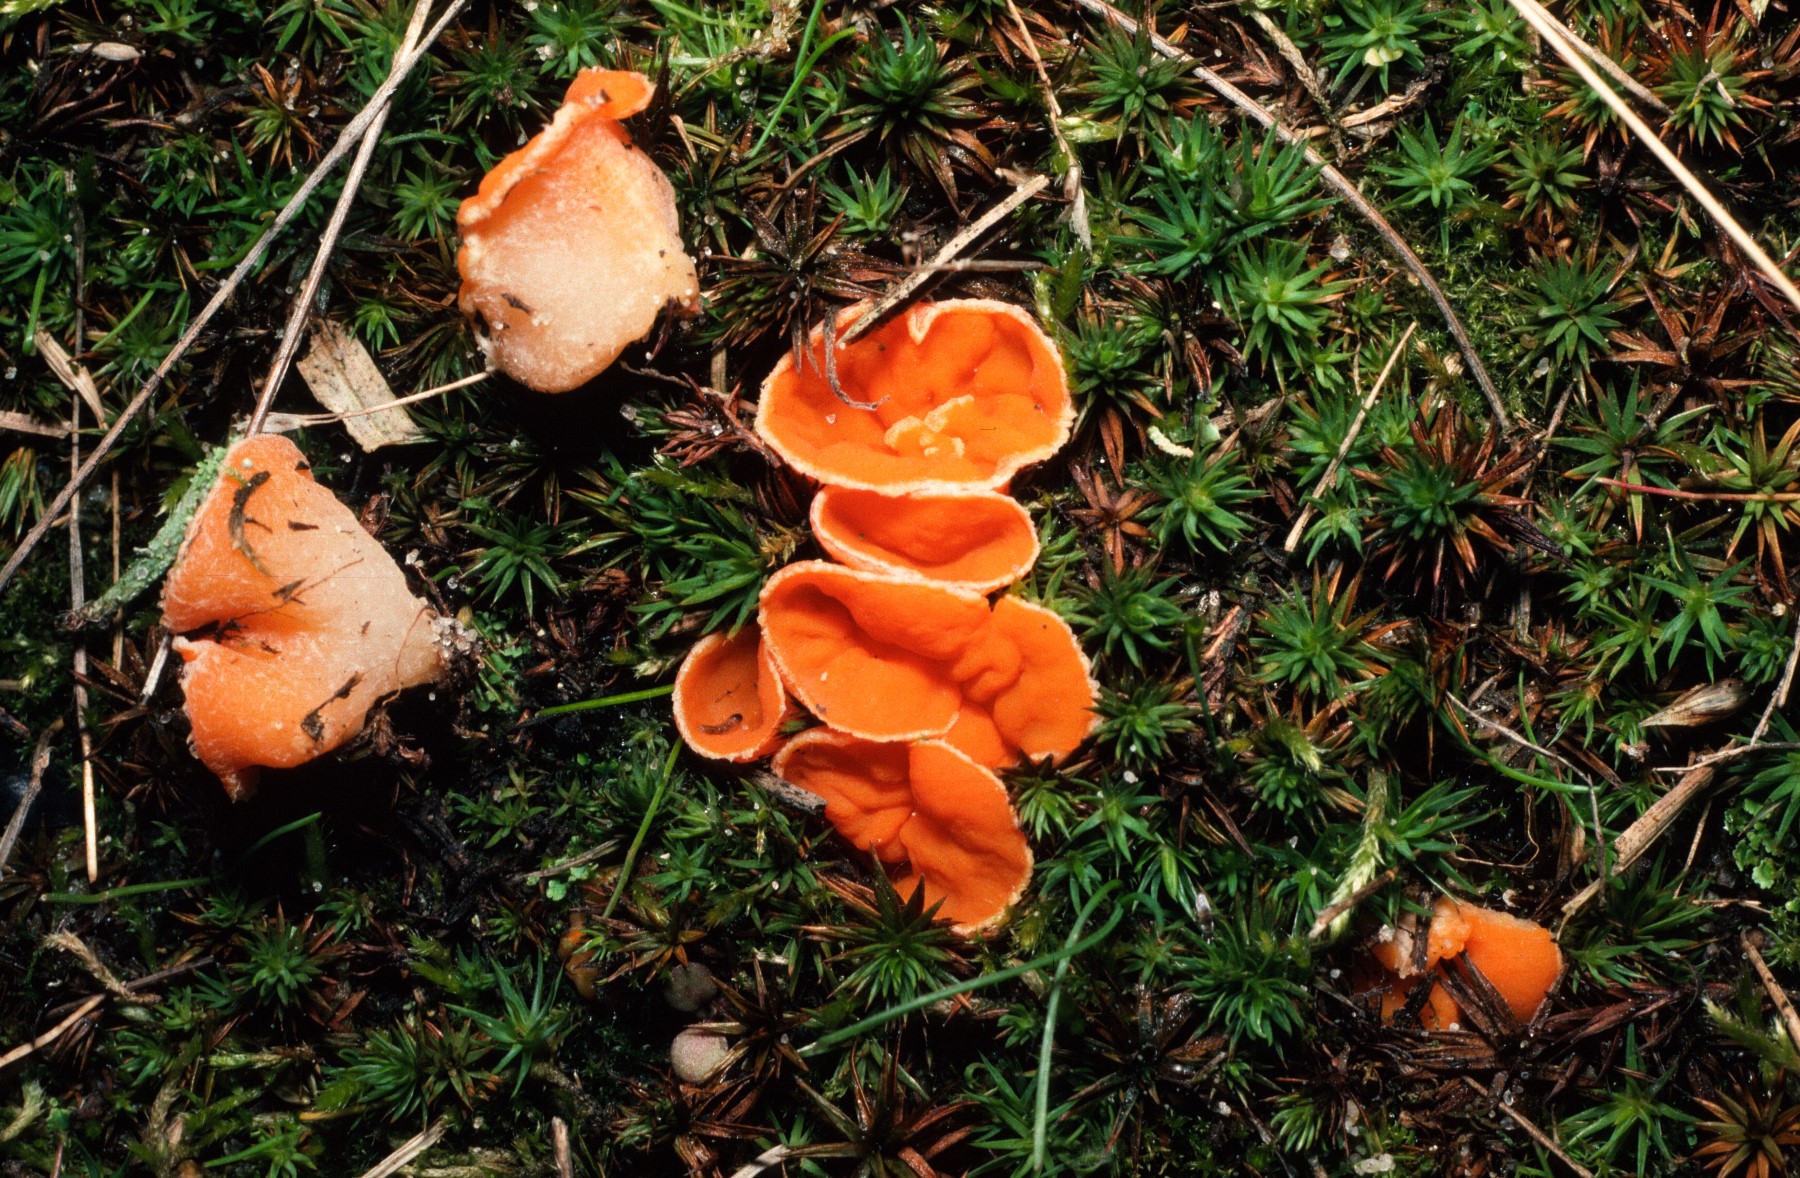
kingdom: Fungi
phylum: Ascomycota
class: Pezizomycetes
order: Pezizales
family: Pyronemataceae
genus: Neottiella
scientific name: Neottiella
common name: mosbæger
